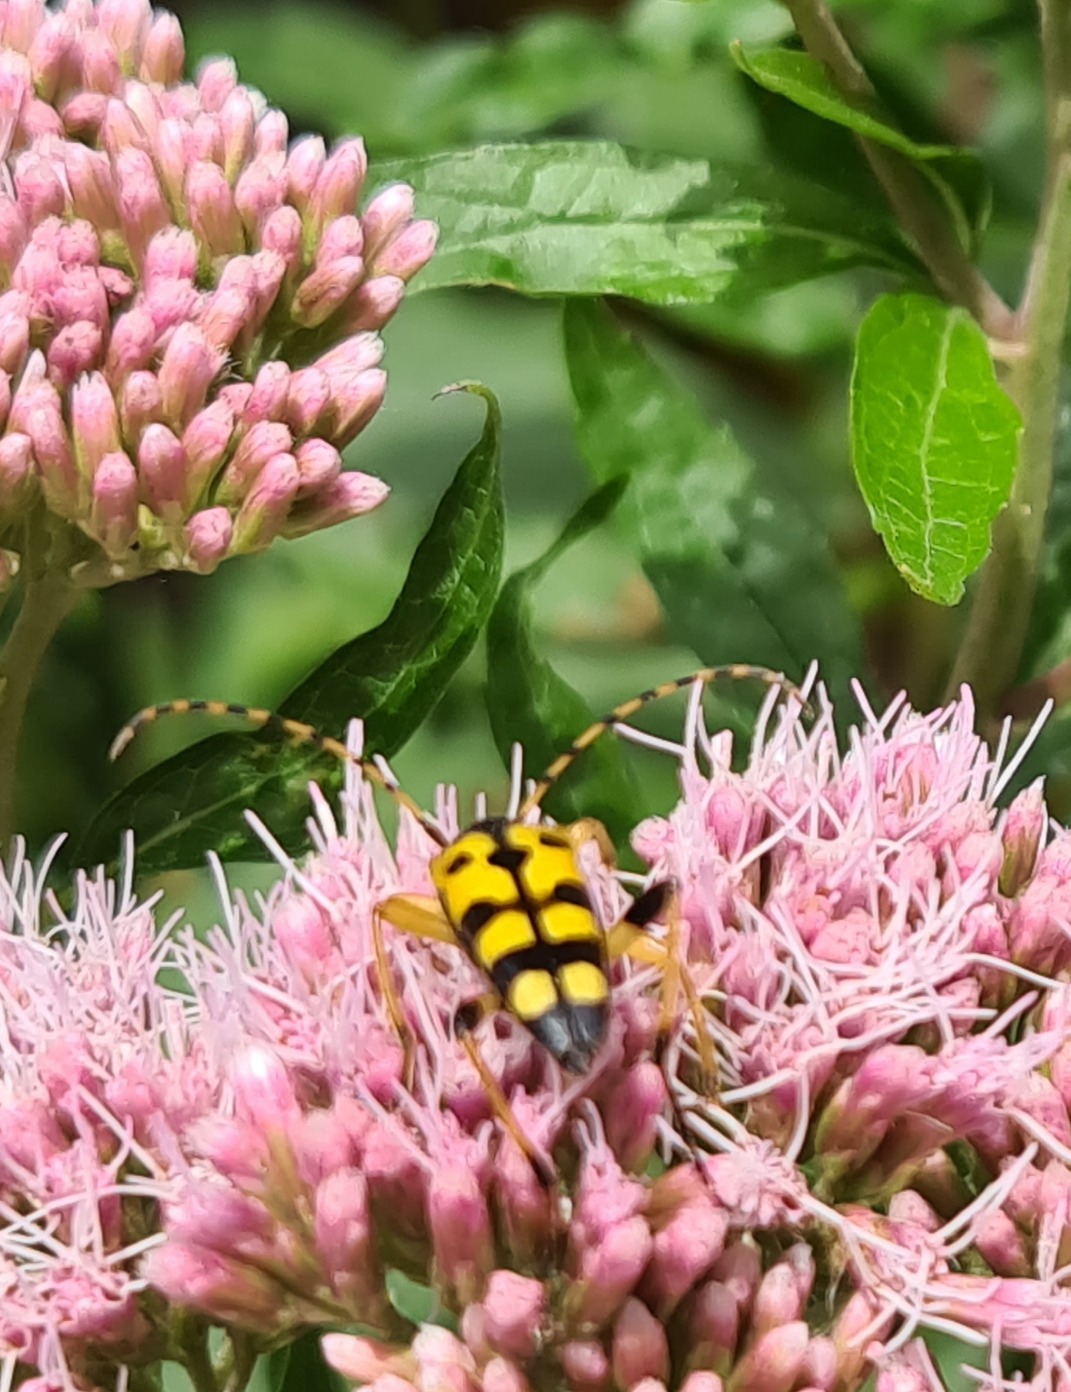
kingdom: Animalia
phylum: Arthropoda
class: Insecta
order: Coleoptera
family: Cerambycidae
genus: Rutpela
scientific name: Rutpela maculata
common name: Sydlig blomsterbuk
